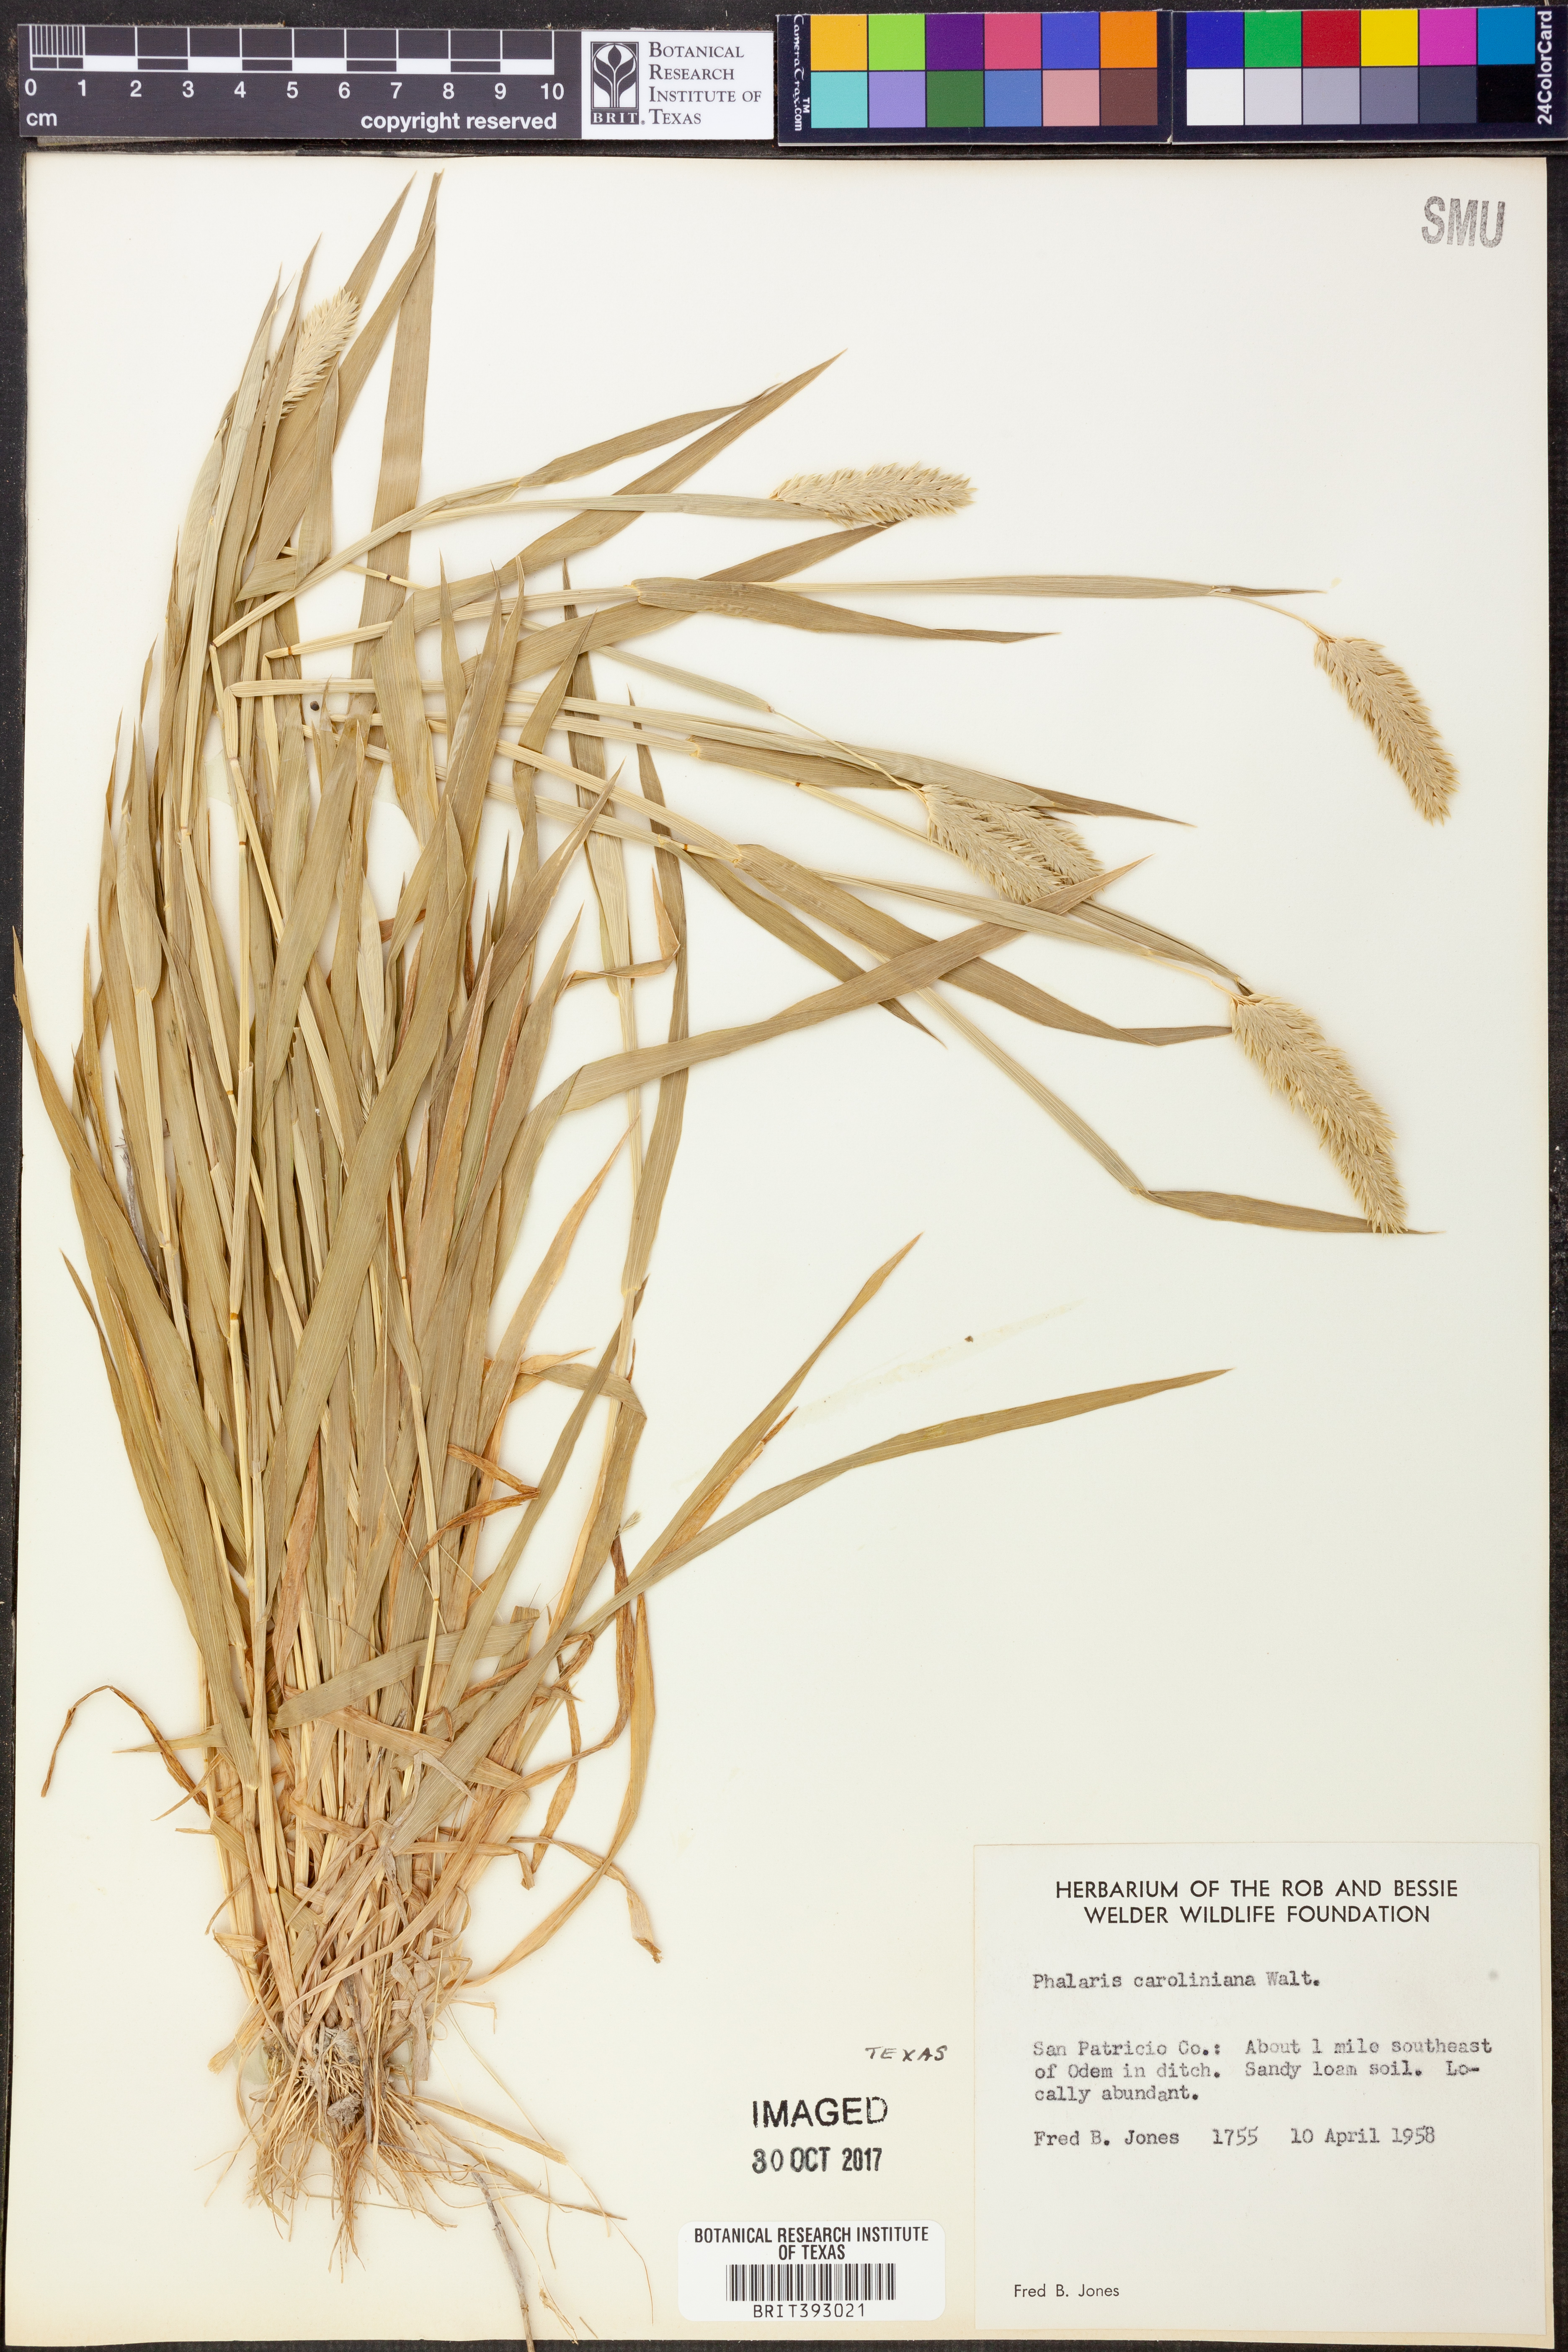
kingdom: Plantae
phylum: Tracheophyta
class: Liliopsida
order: Poales
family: Poaceae
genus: Phalaris
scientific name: Phalaris caroliniana
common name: May grass
